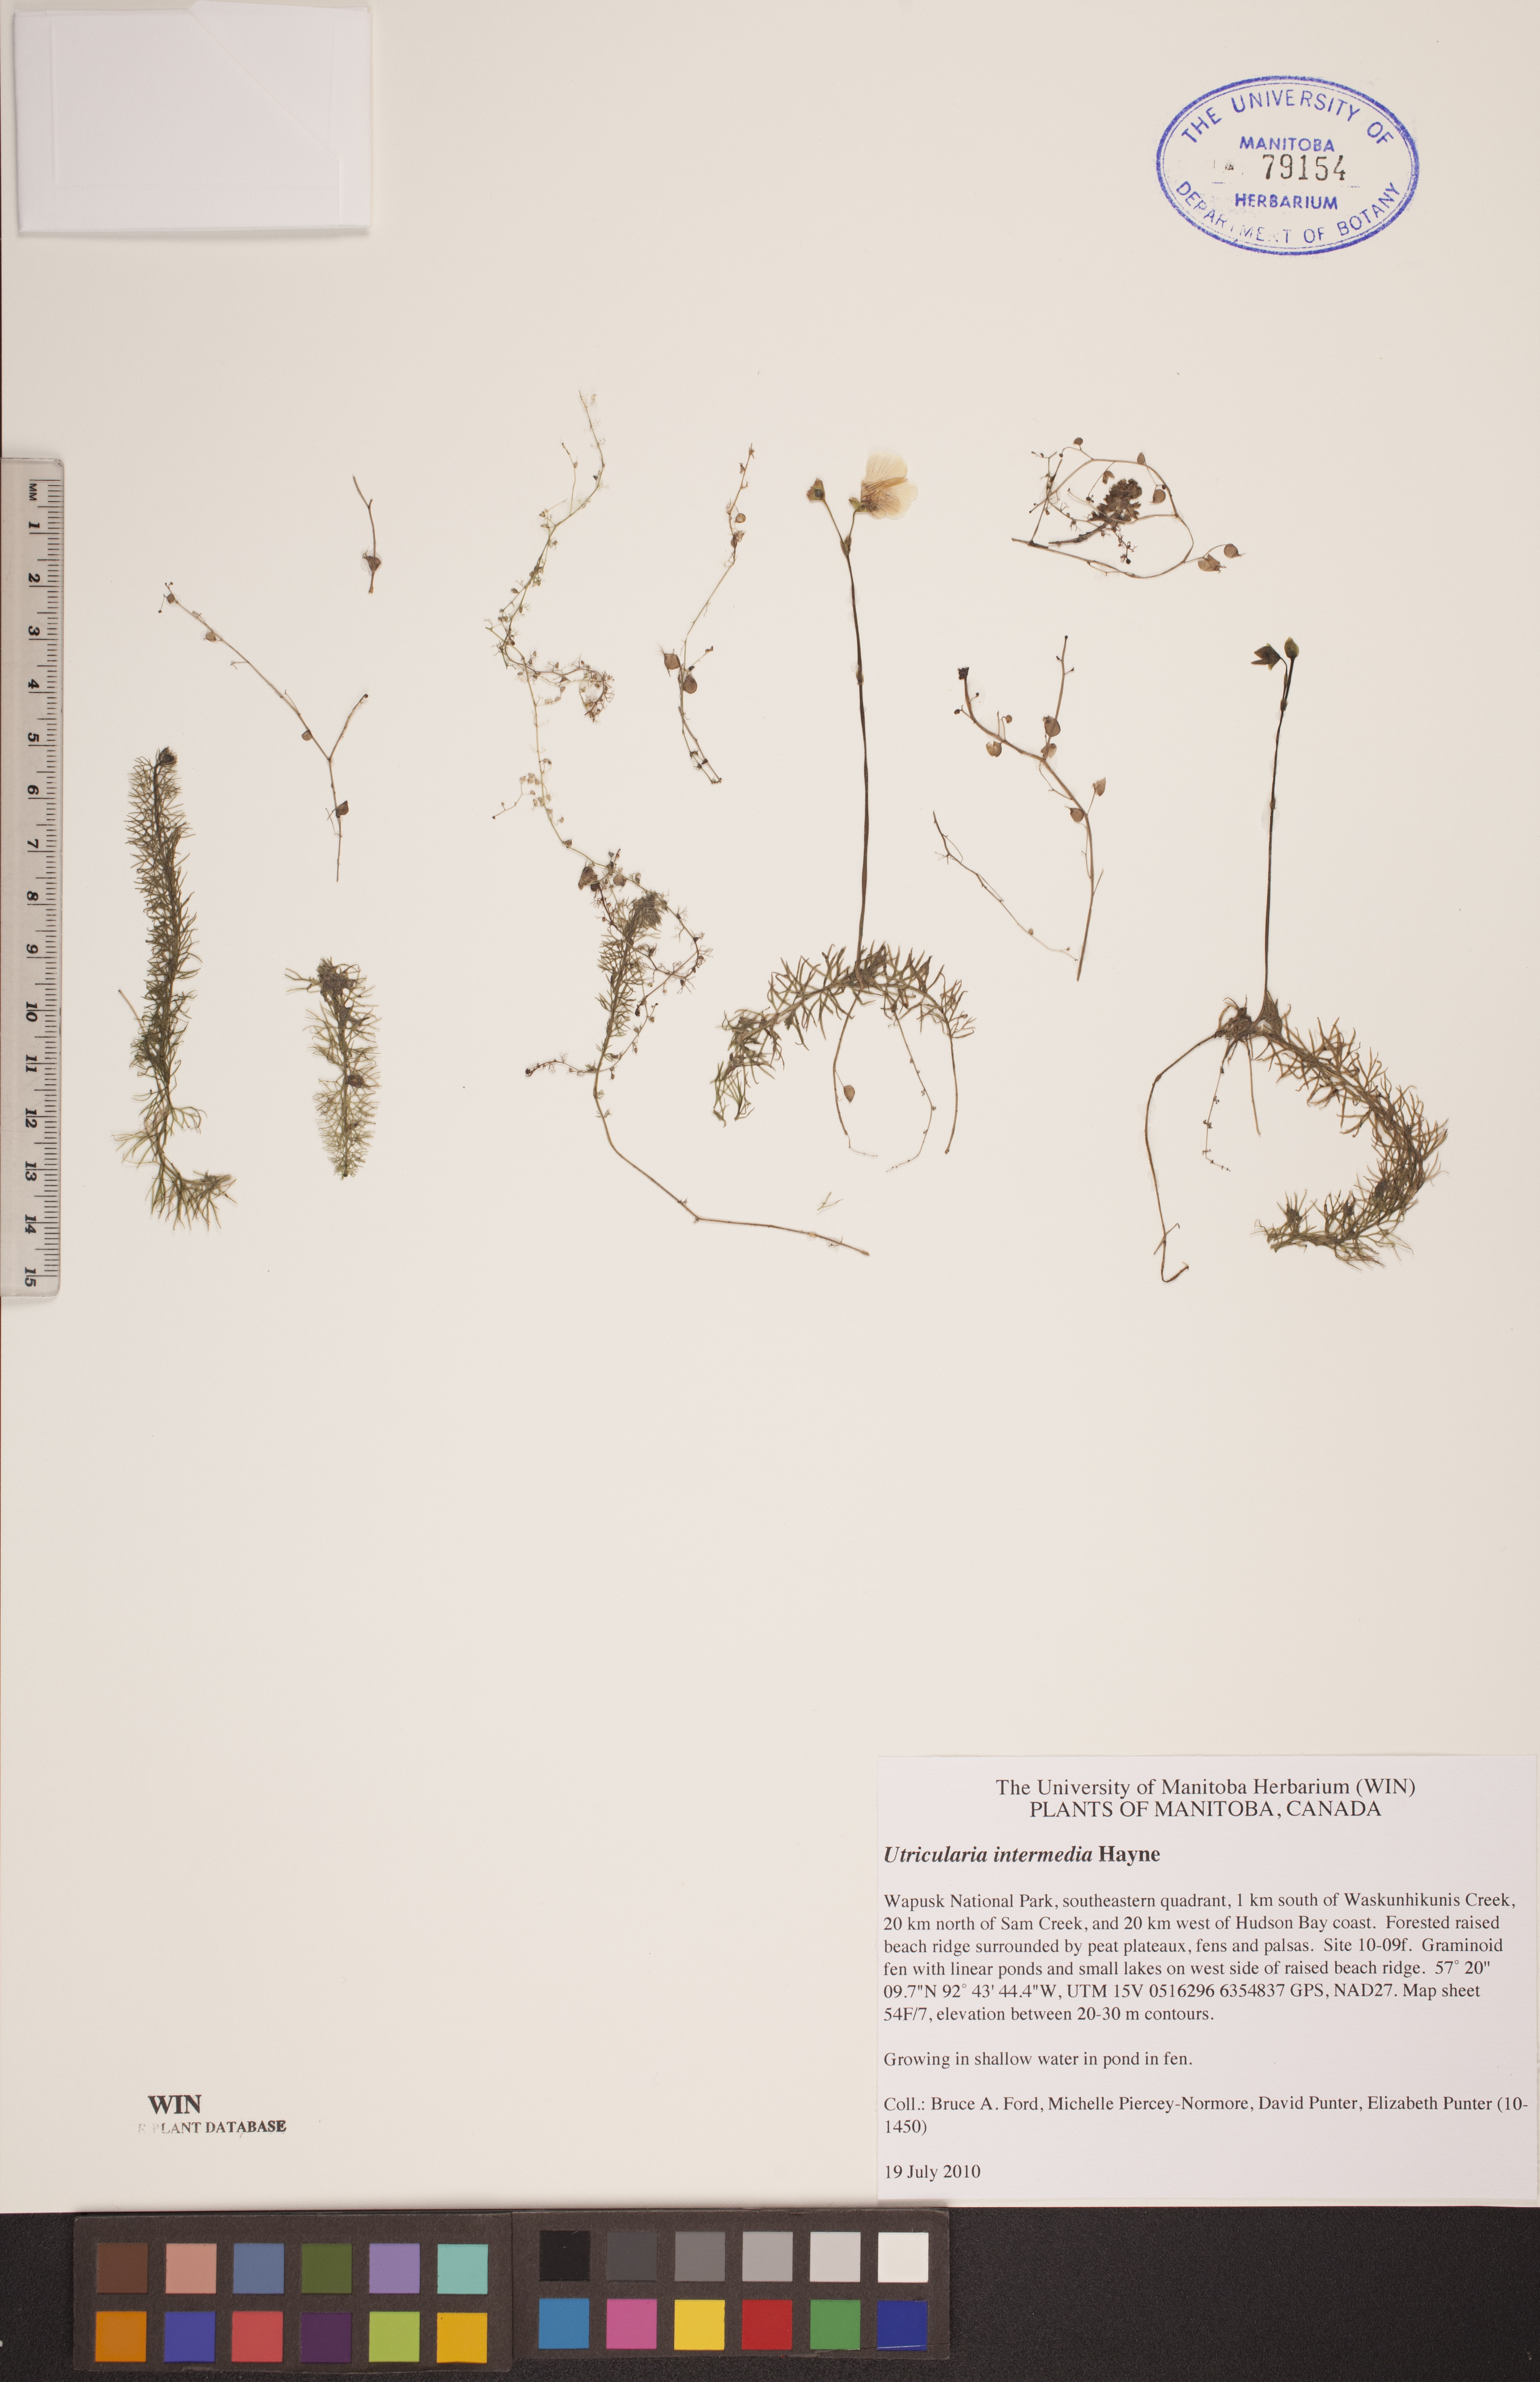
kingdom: Plantae
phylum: Tracheophyta
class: Magnoliopsida
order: Lamiales
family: Lentibulariaceae
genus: Utricularia
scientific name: Utricularia intermedia
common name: Intermediate bladderwort
